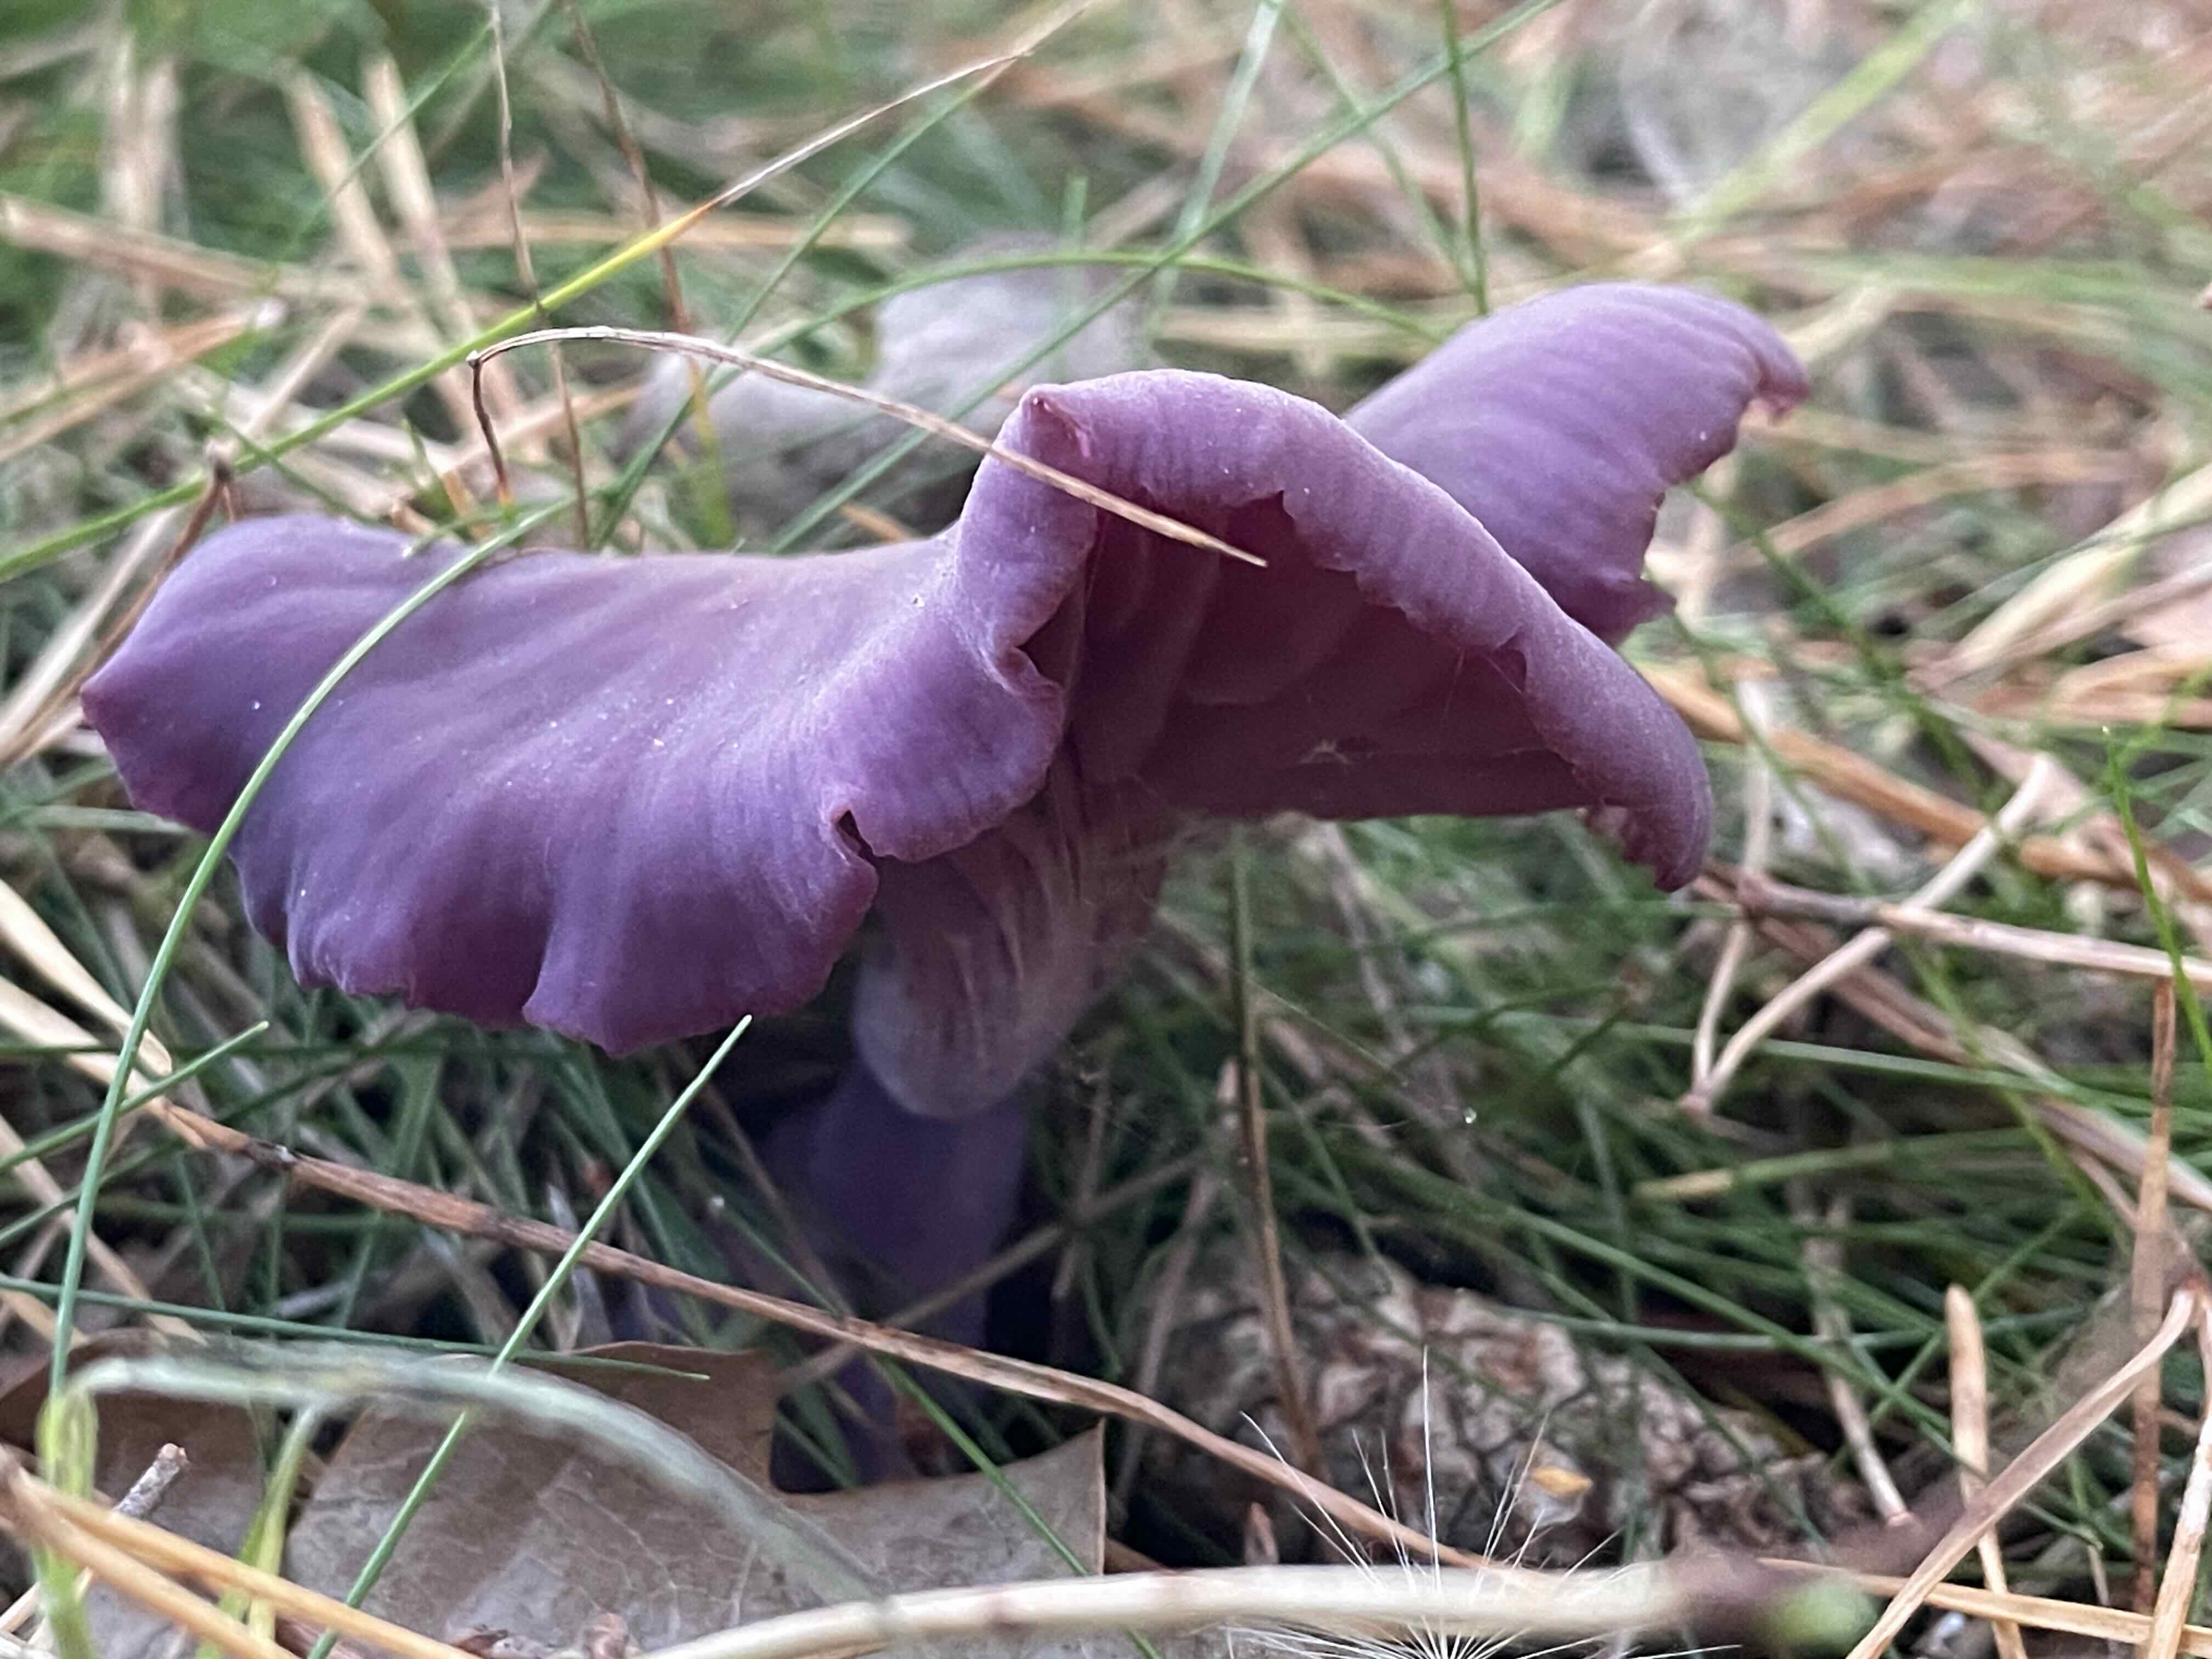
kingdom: Fungi
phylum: Basidiomycota
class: Agaricomycetes
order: Agaricales
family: Hydnangiaceae
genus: Laccaria
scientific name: Laccaria amethystina
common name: violet ametysthat
